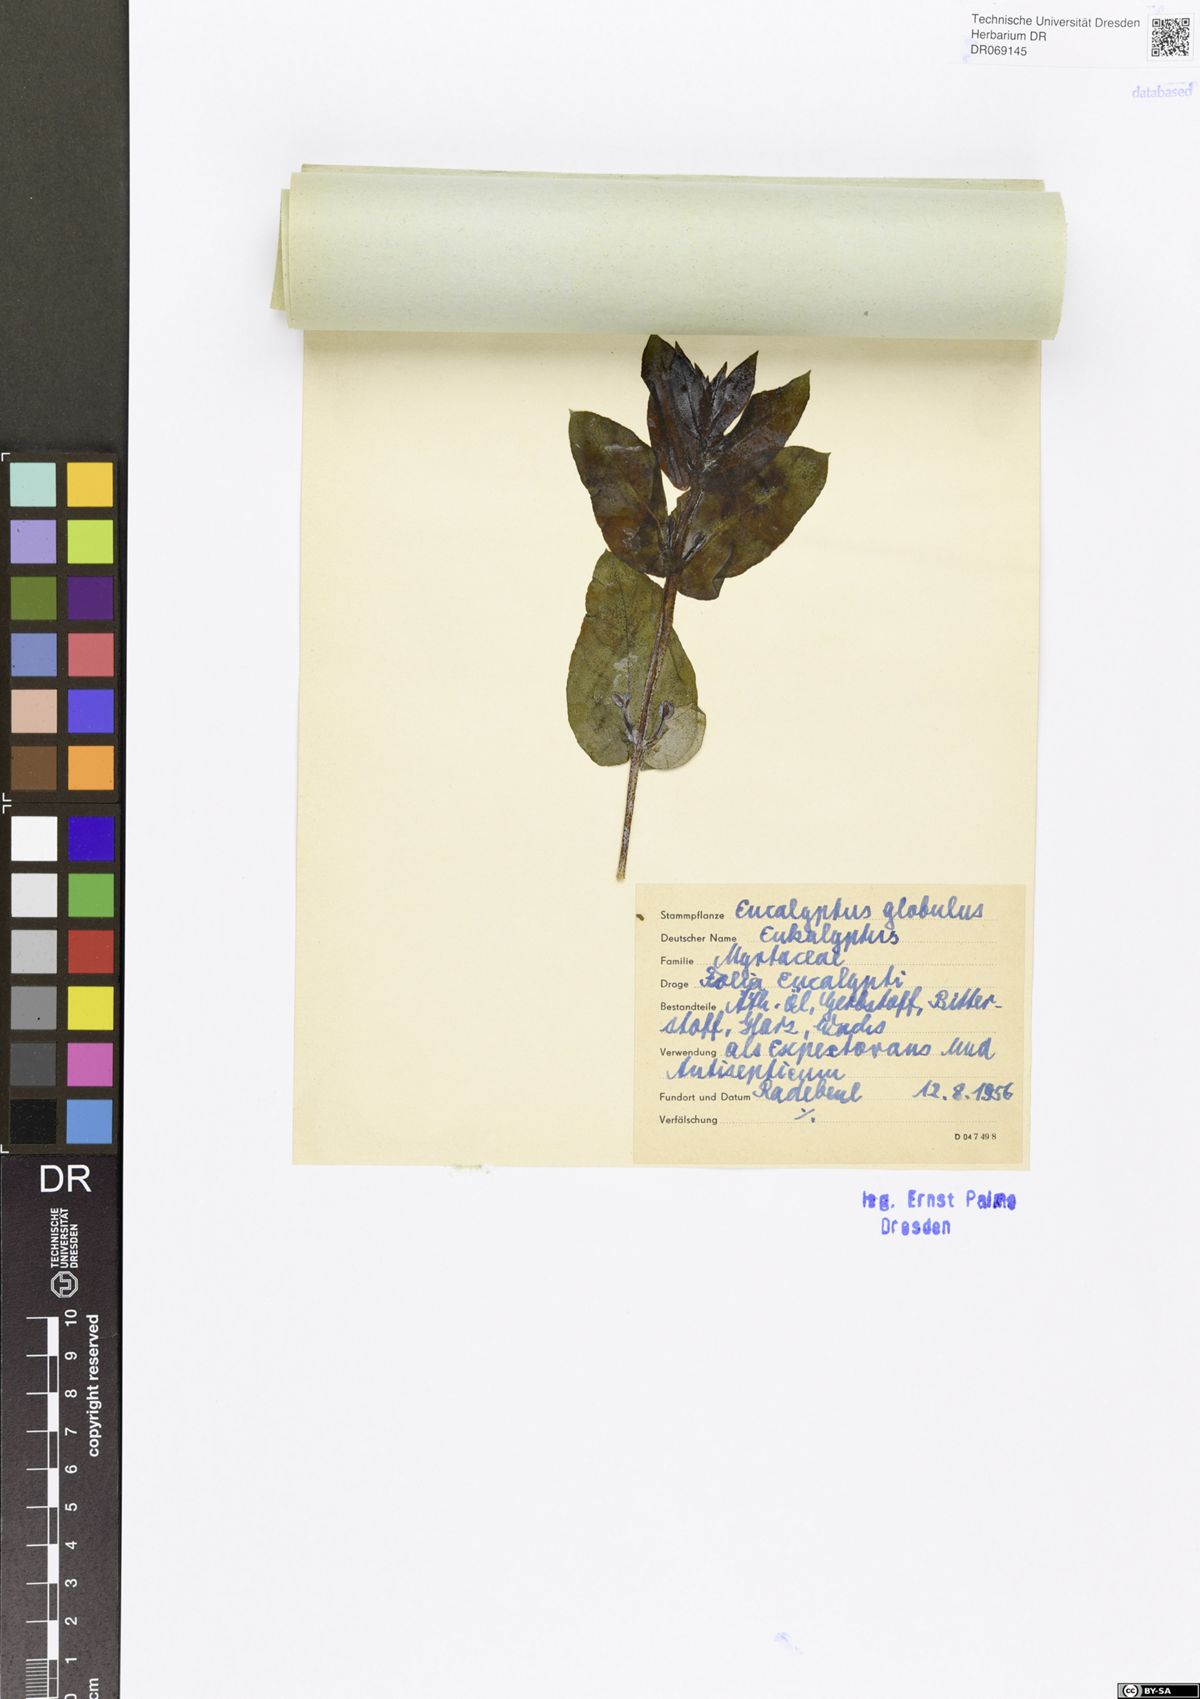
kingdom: Plantae
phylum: Tracheophyta
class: Magnoliopsida
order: Myrtales
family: Myrtaceae
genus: Eucalyptus
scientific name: Eucalyptus globulus
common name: Southern blue-gum
